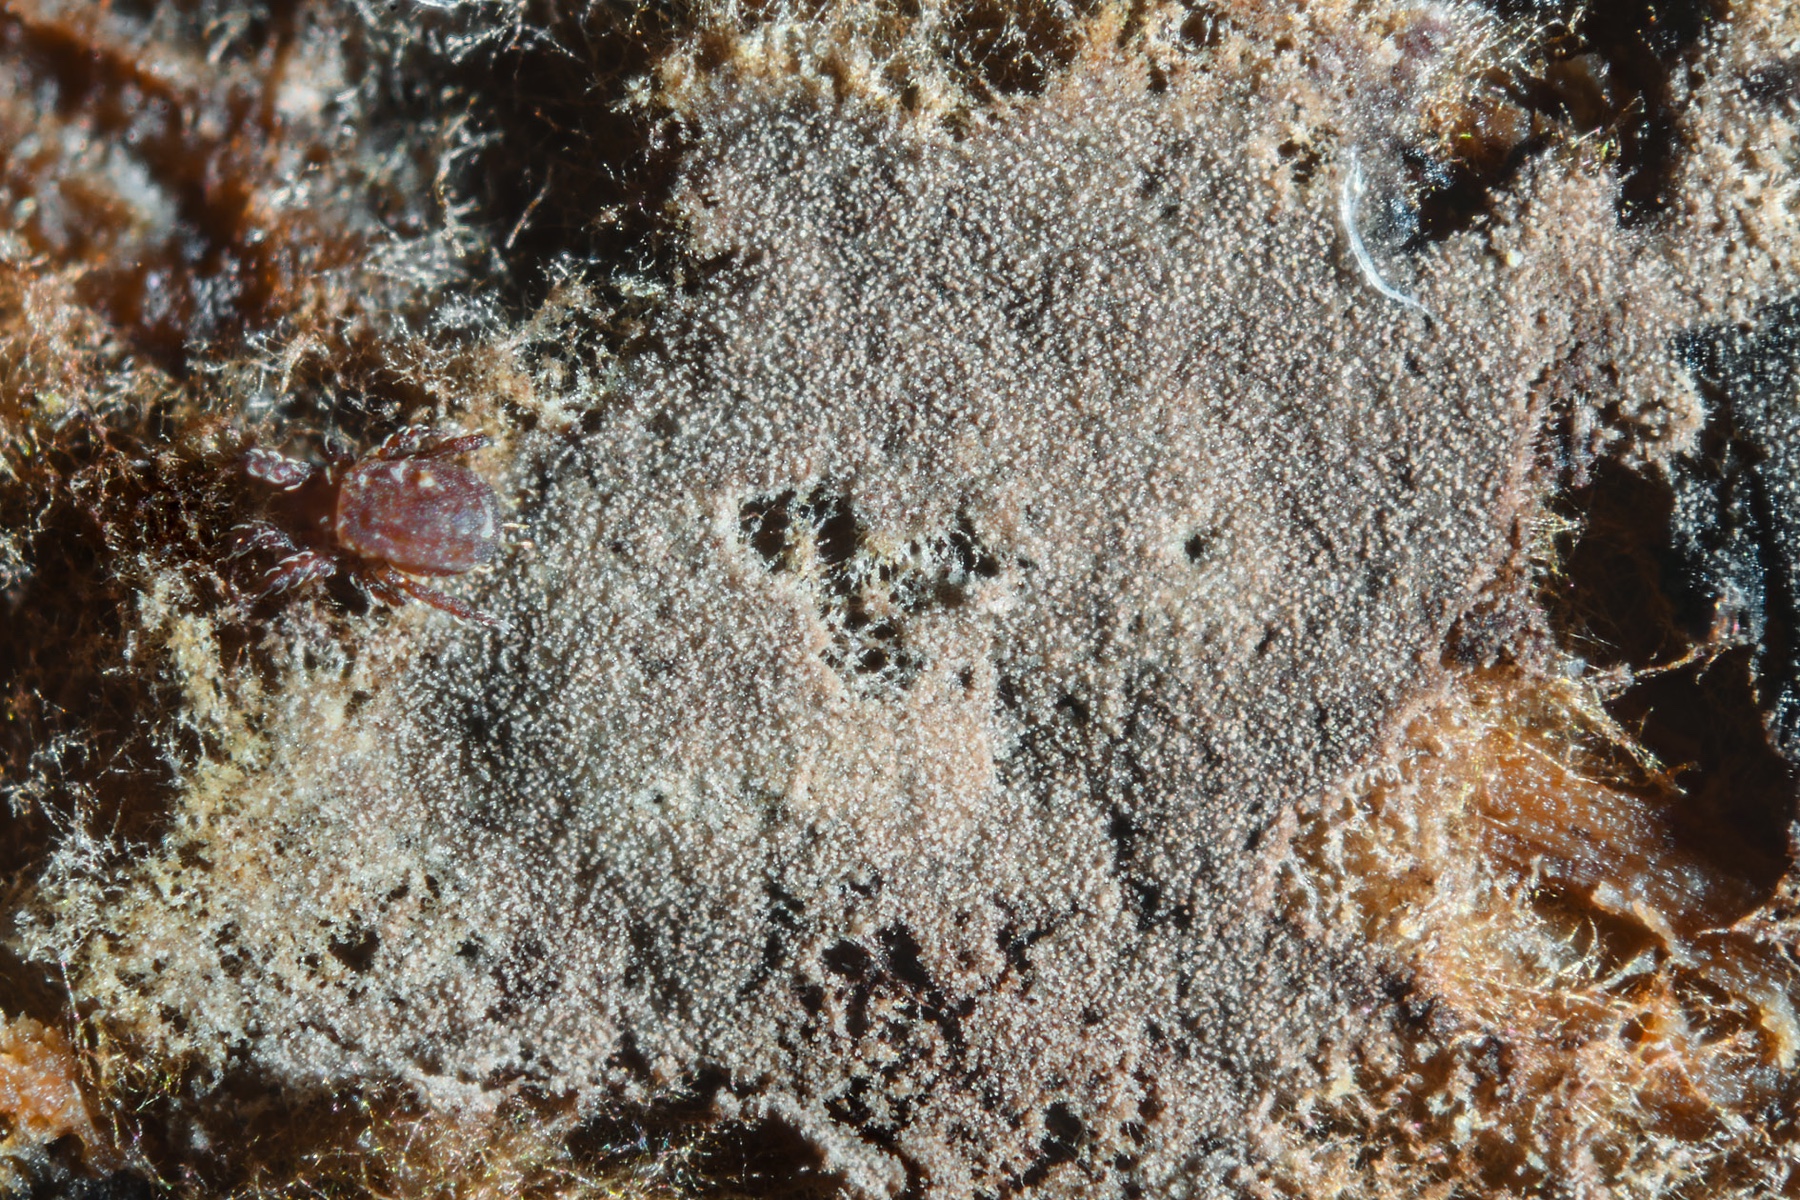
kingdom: Fungi
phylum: Basidiomycota
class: Agaricomycetes
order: Thelephorales
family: Thelephoraceae
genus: Polyozellus
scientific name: Polyozellus umbrinus
